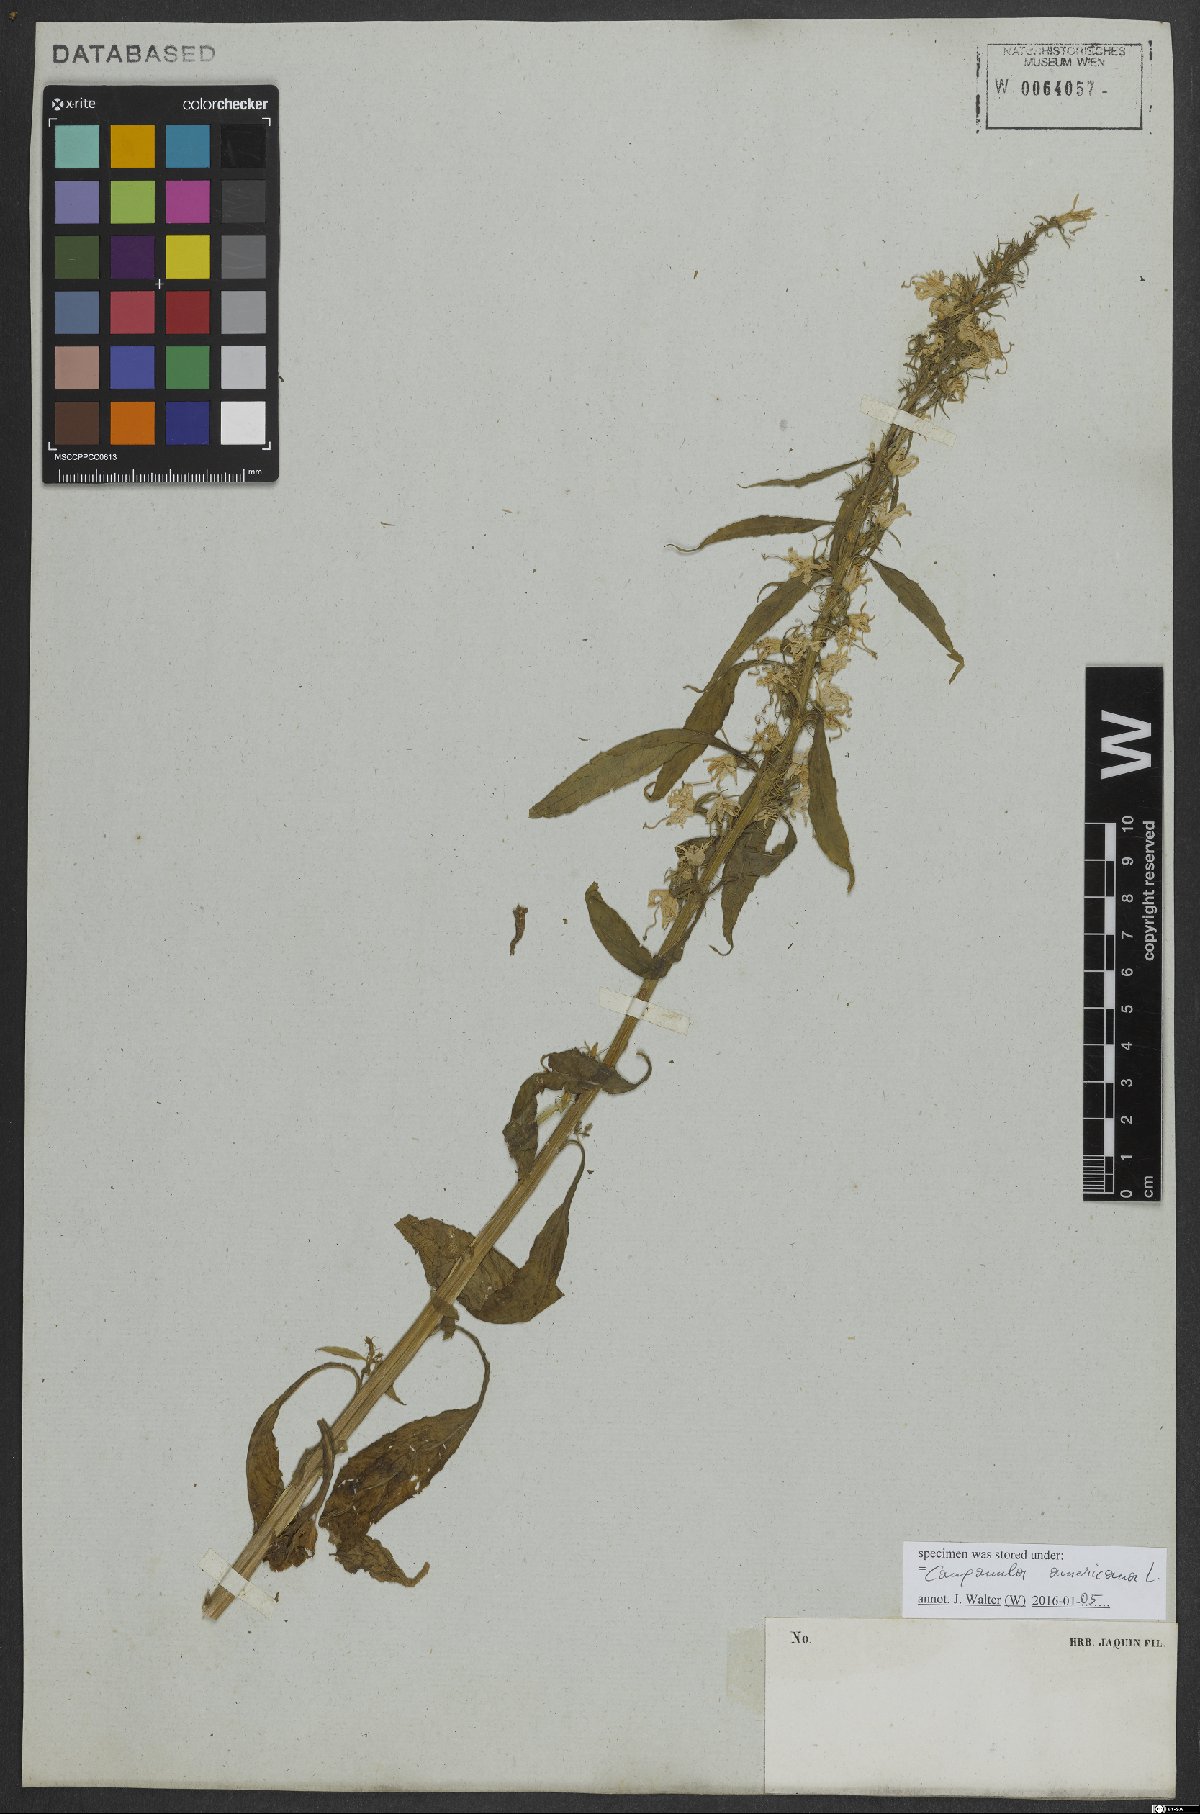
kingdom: Plantae
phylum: Tracheophyta
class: Magnoliopsida
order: Asterales
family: Campanulaceae
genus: Campanulastrum
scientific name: Campanulastrum americanum
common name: American bellflower
